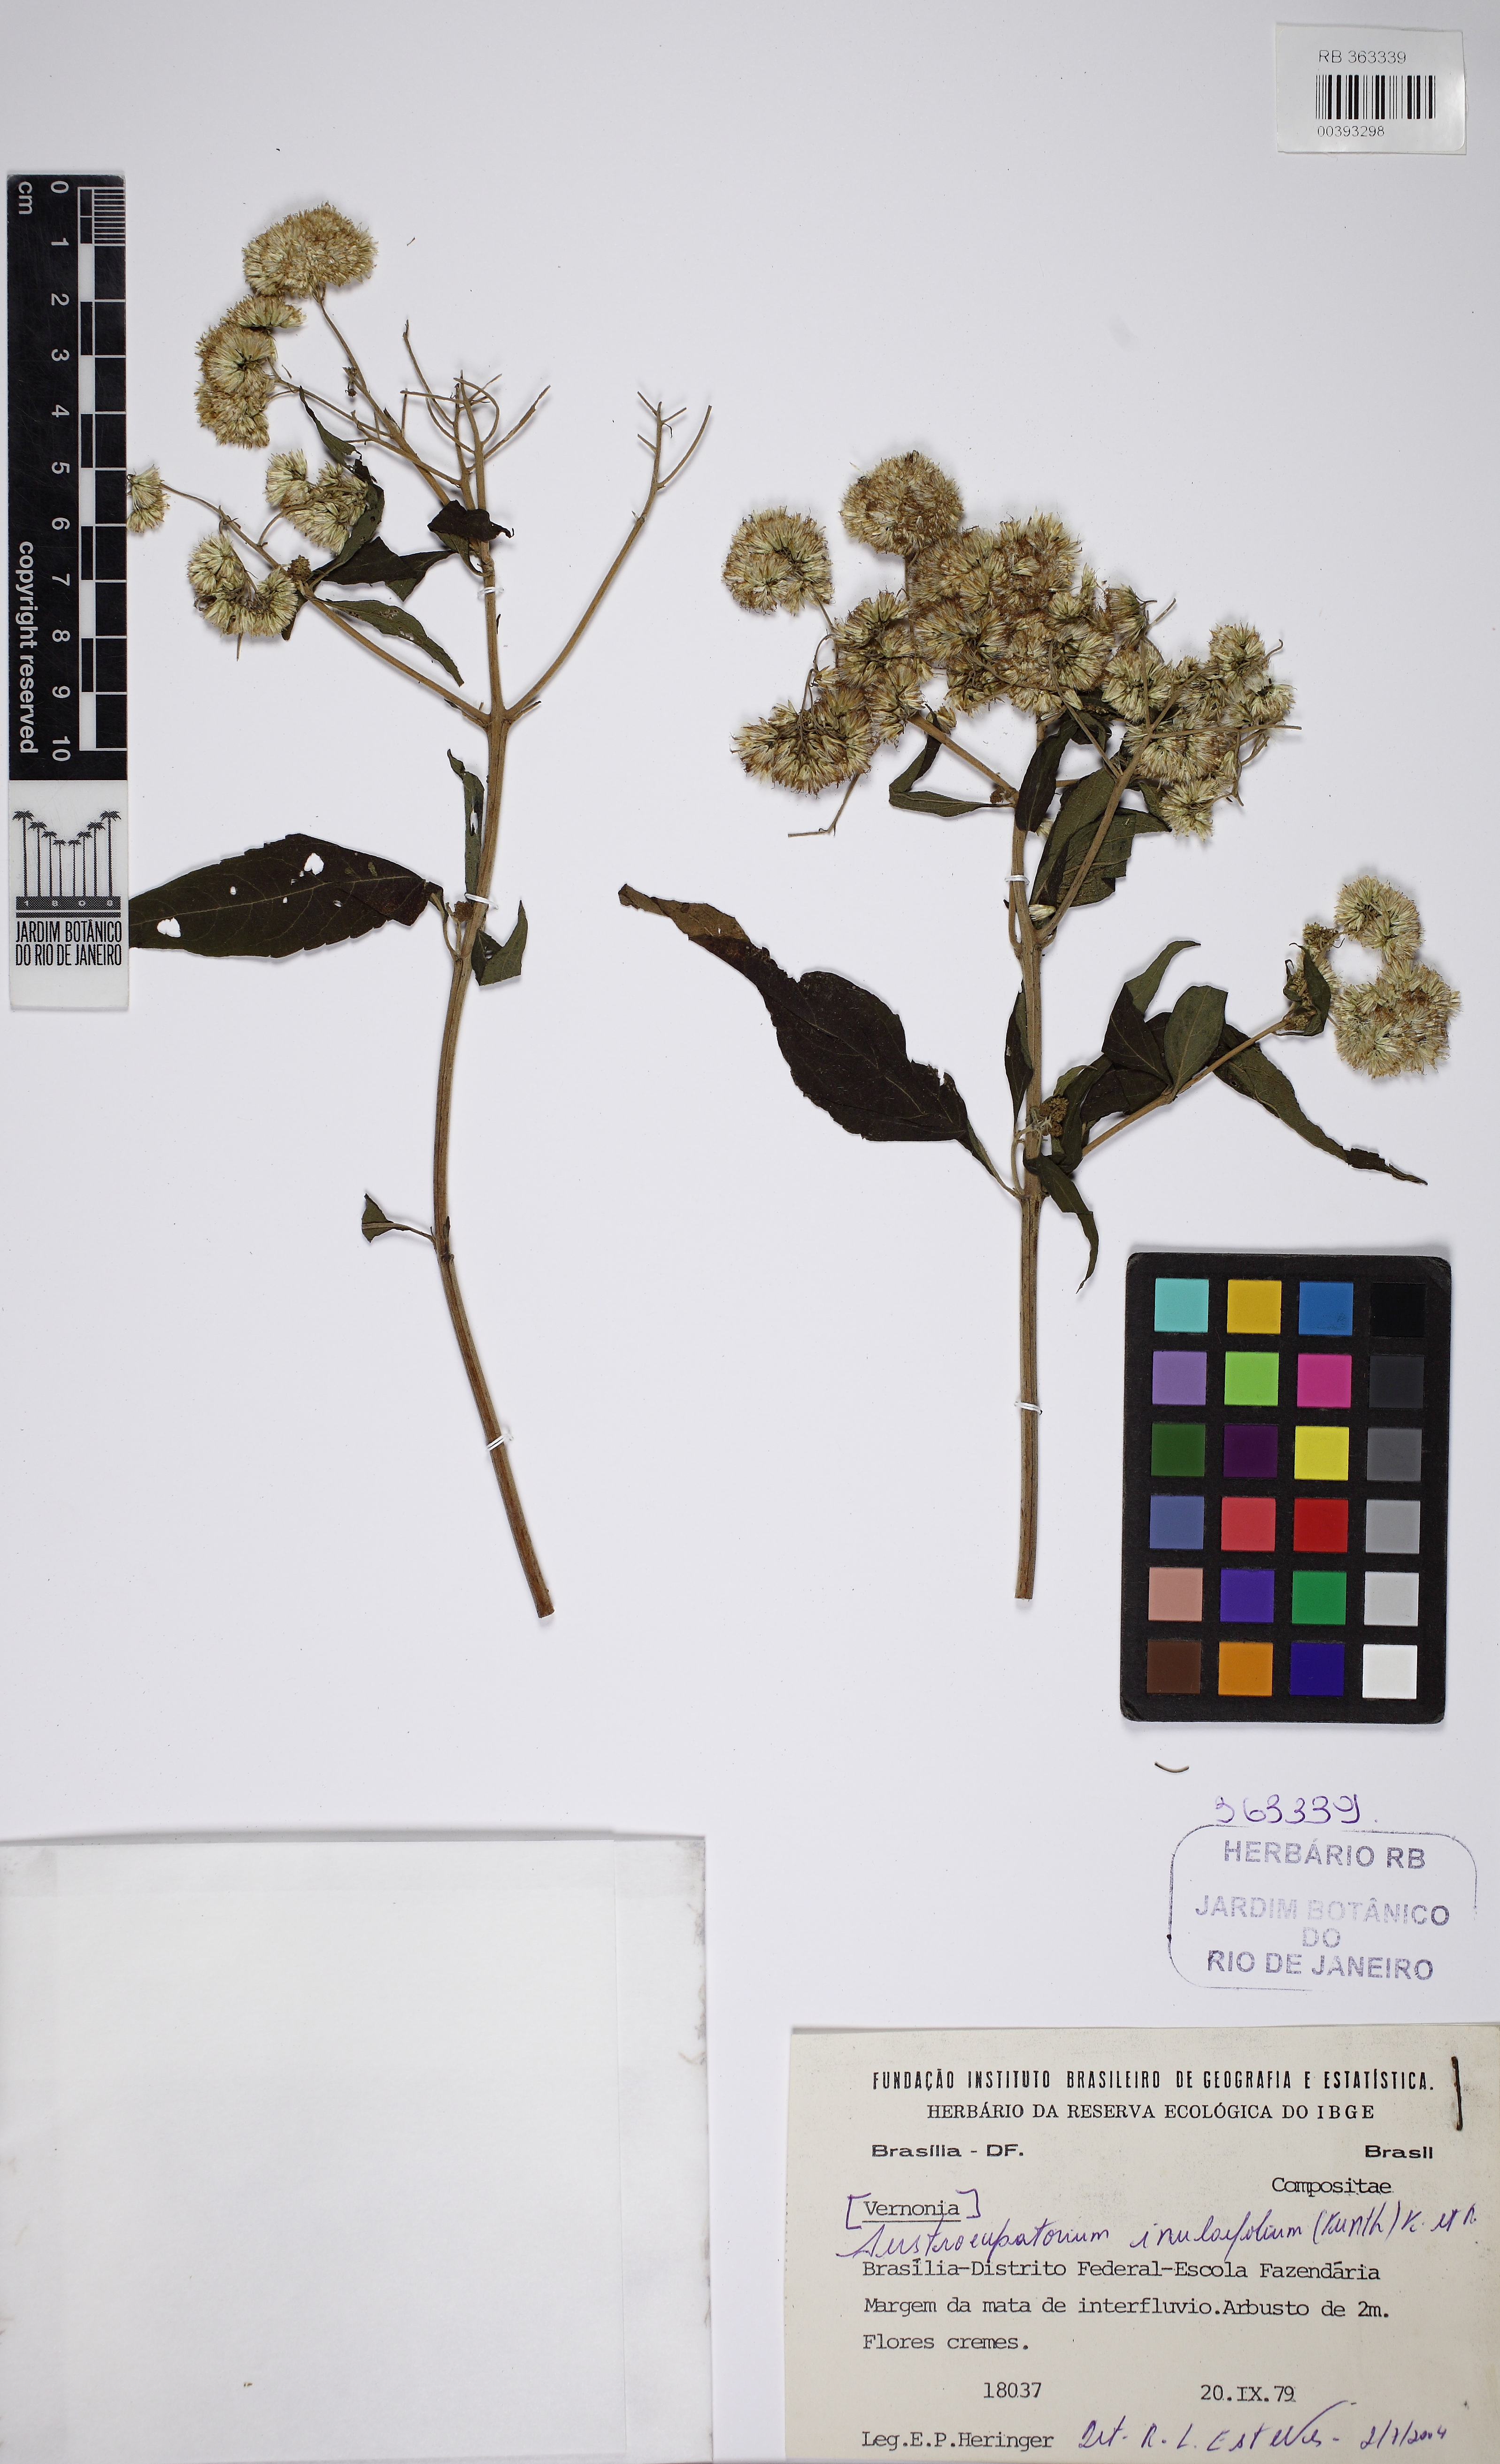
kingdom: Plantae
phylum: Tracheophyta
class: Magnoliopsida
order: Asterales
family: Asteraceae
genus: Austroeupatorium
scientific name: Austroeupatorium inulaefolium
